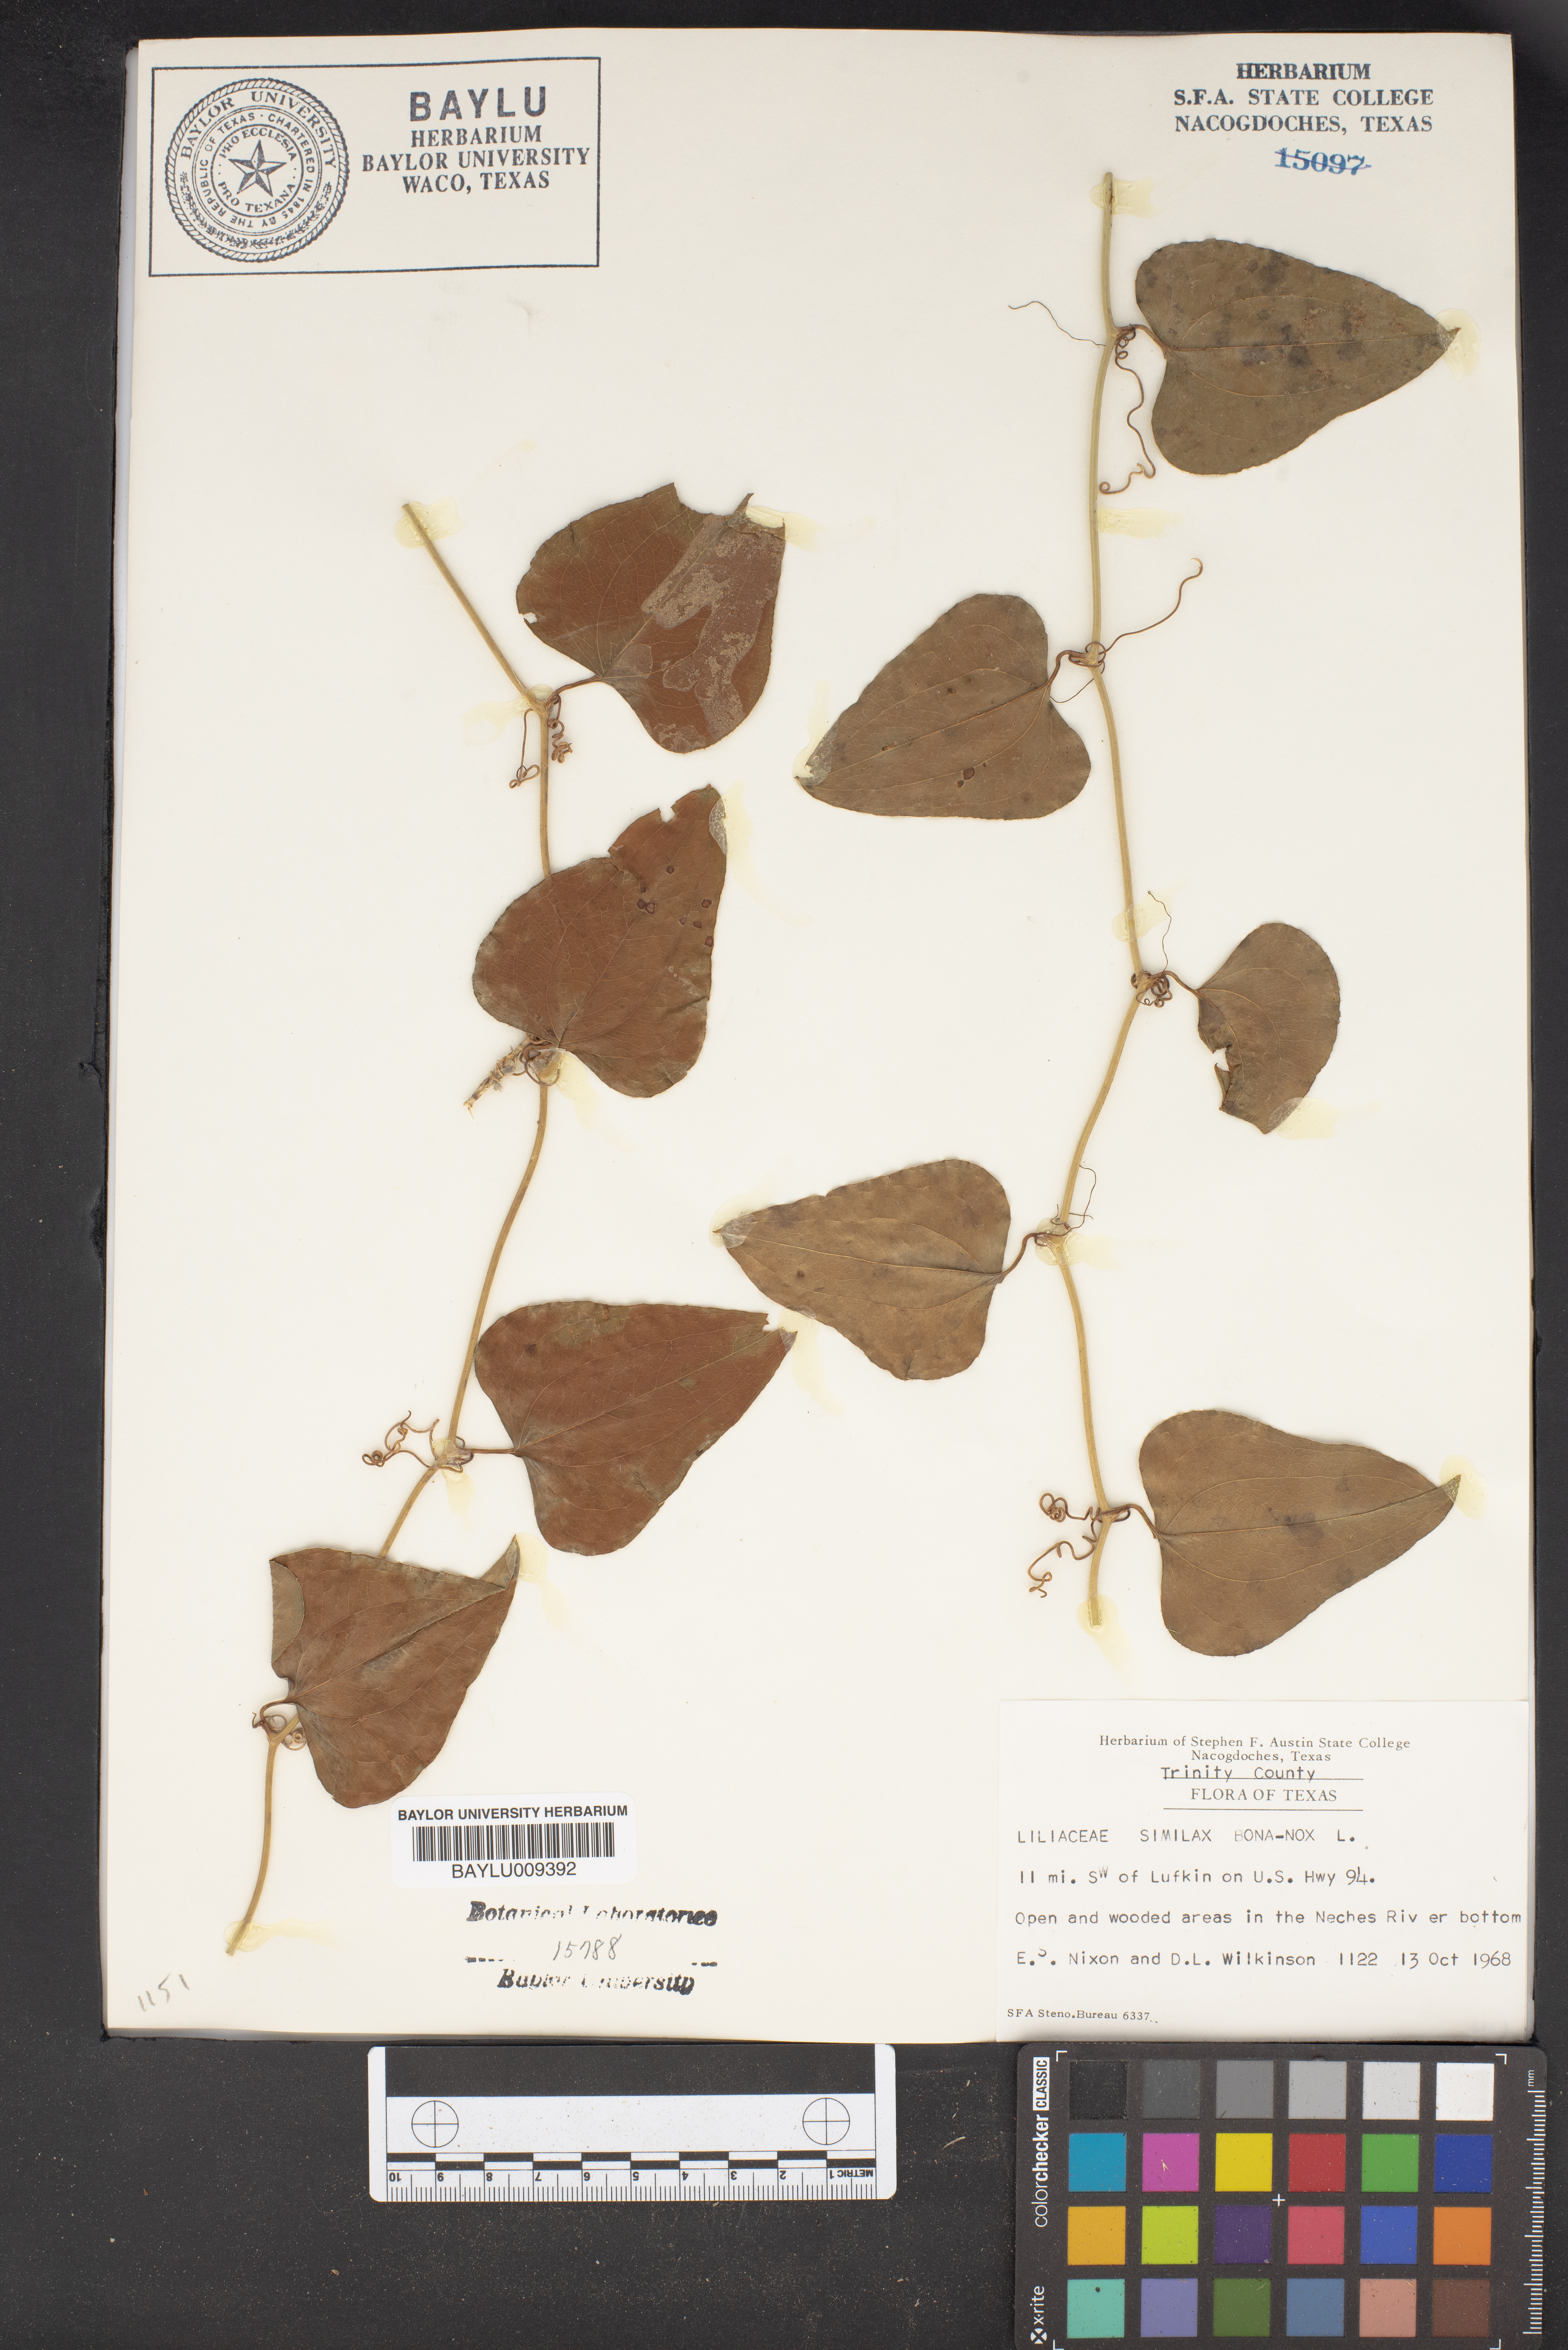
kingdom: Plantae
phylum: Tracheophyta
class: Liliopsida
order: Liliales
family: Smilacaceae
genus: Smilax
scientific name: Smilax bona-nox
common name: Catbrier
